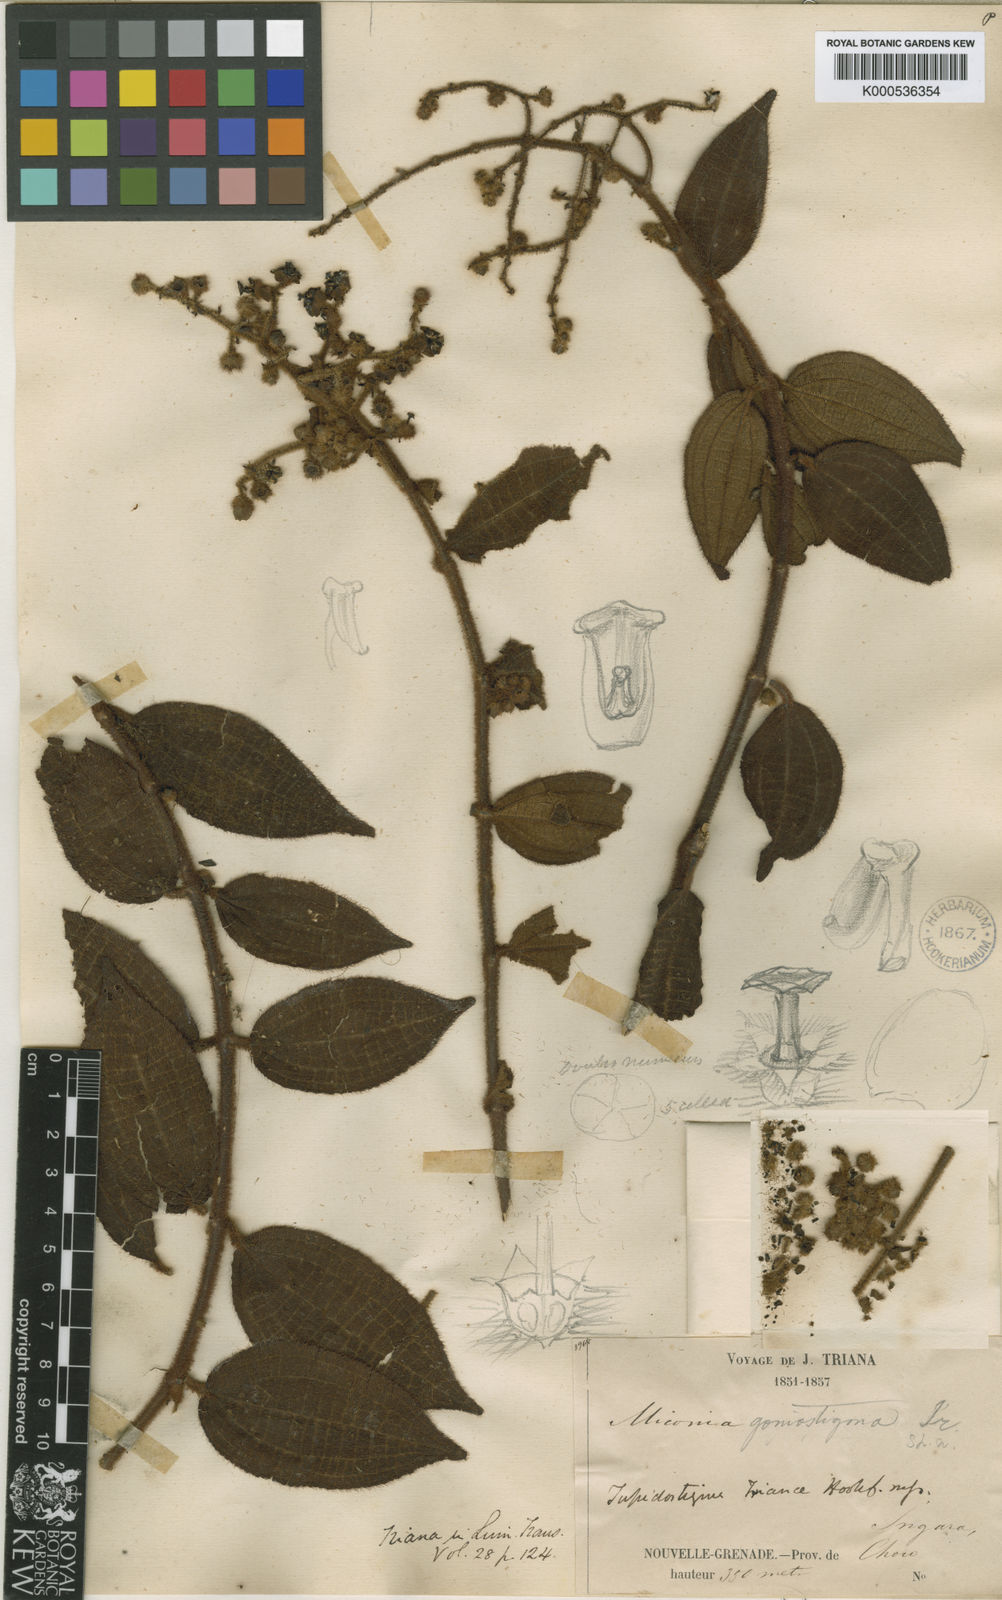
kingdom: Plantae
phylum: Tracheophyta
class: Magnoliopsida
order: Myrtales
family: Melastomataceae
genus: Miconia
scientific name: Miconia goniostigma
